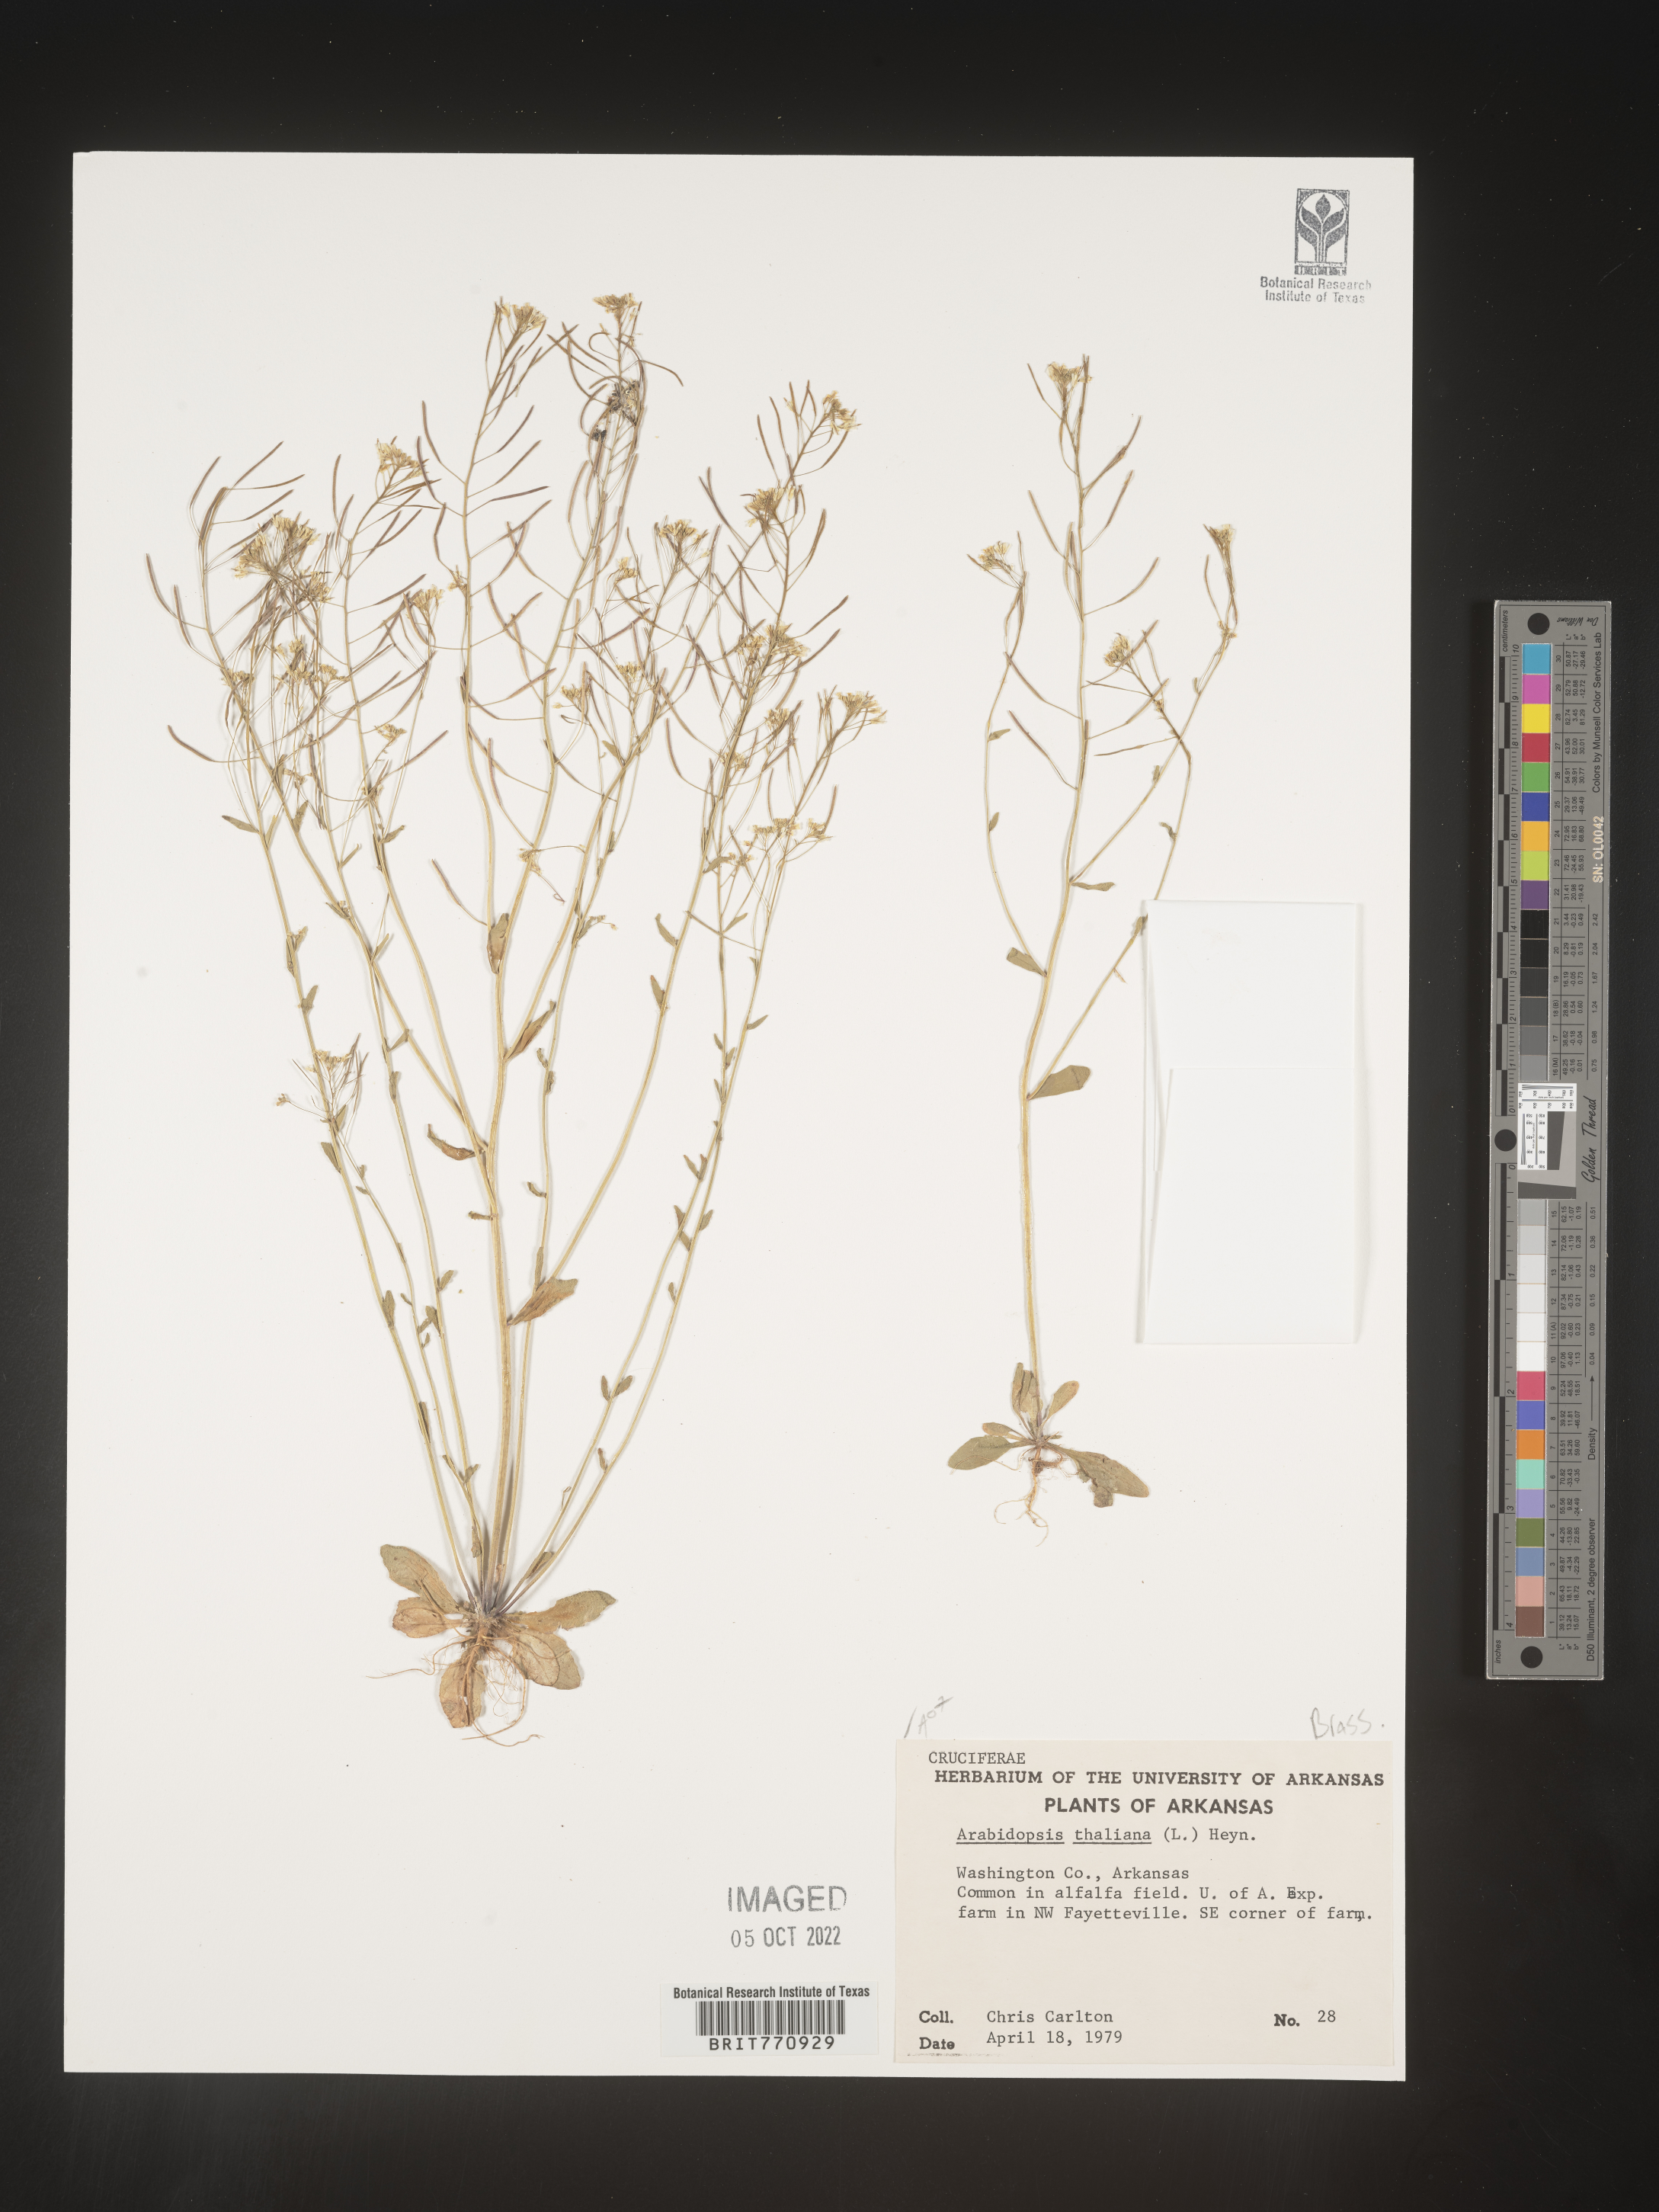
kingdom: Plantae
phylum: Tracheophyta
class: Magnoliopsida
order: Brassicales
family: Brassicaceae
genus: Arabidopsis
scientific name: Arabidopsis thaliana
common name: Thale cress
